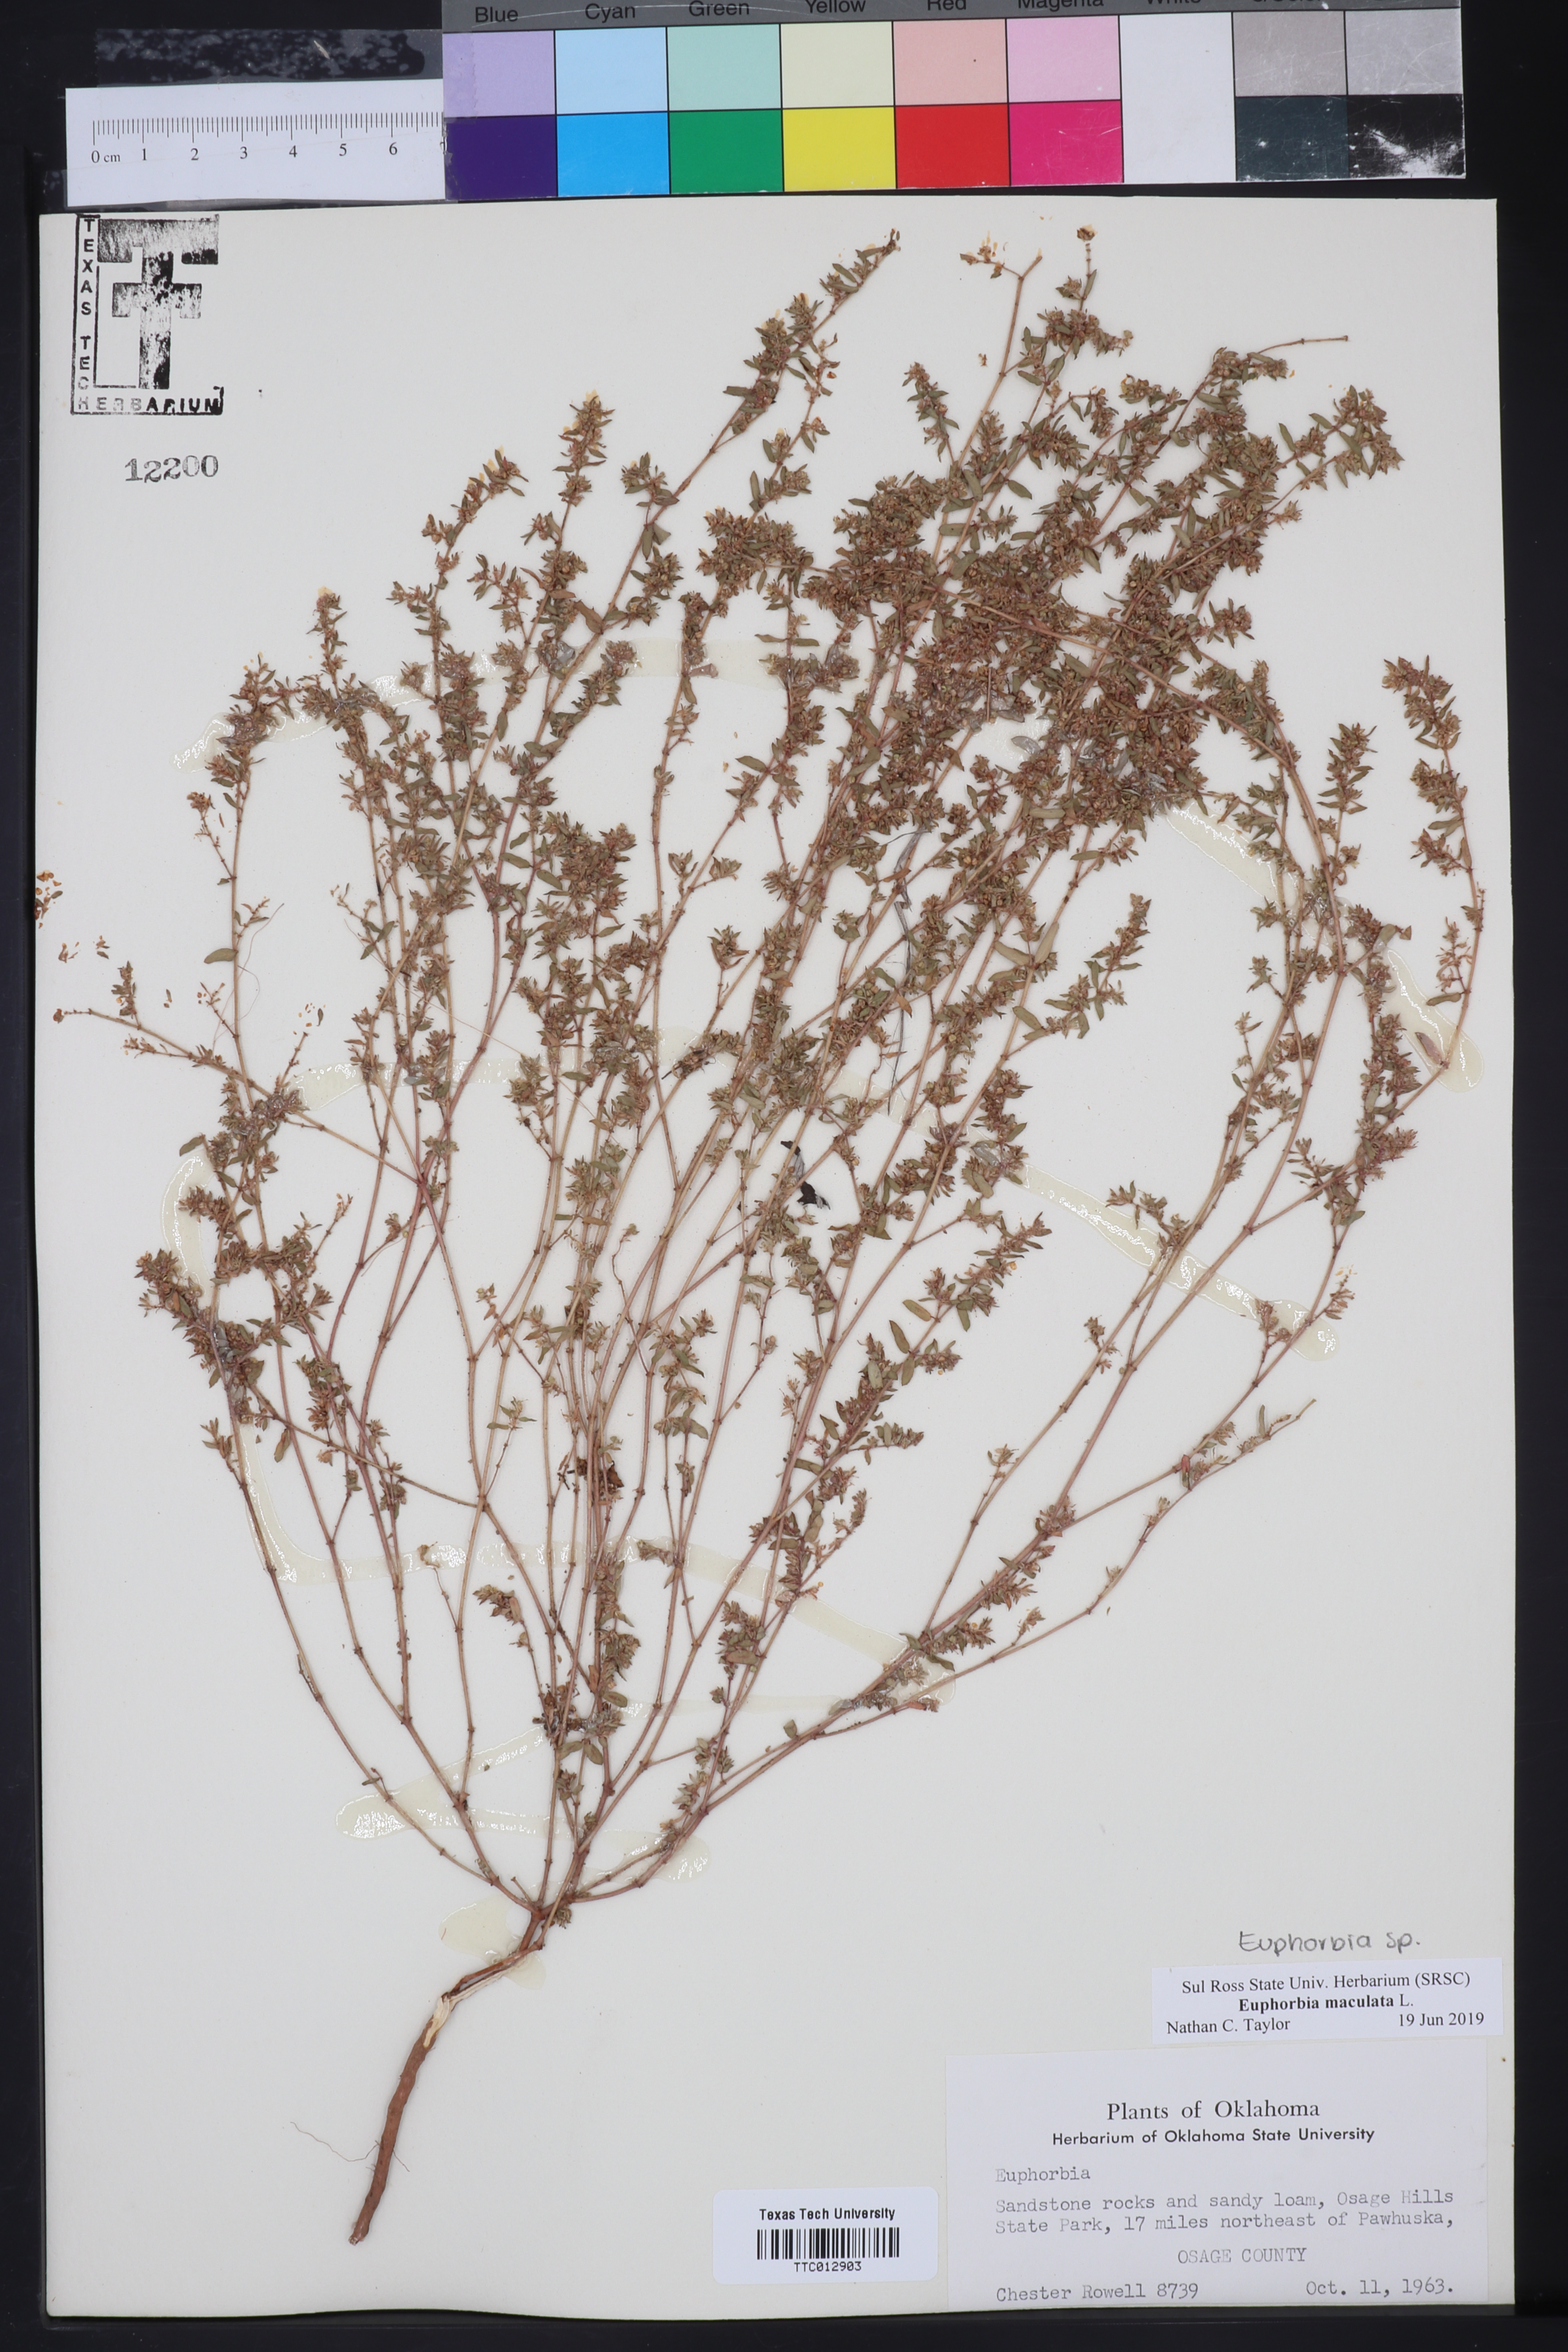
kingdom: Plantae
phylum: Tracheophyta
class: Magnoliopsida
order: Malpighiales
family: Euphorbiaceae
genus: Euphorbia
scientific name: Euphorbia maculata
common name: Spotted spurge
